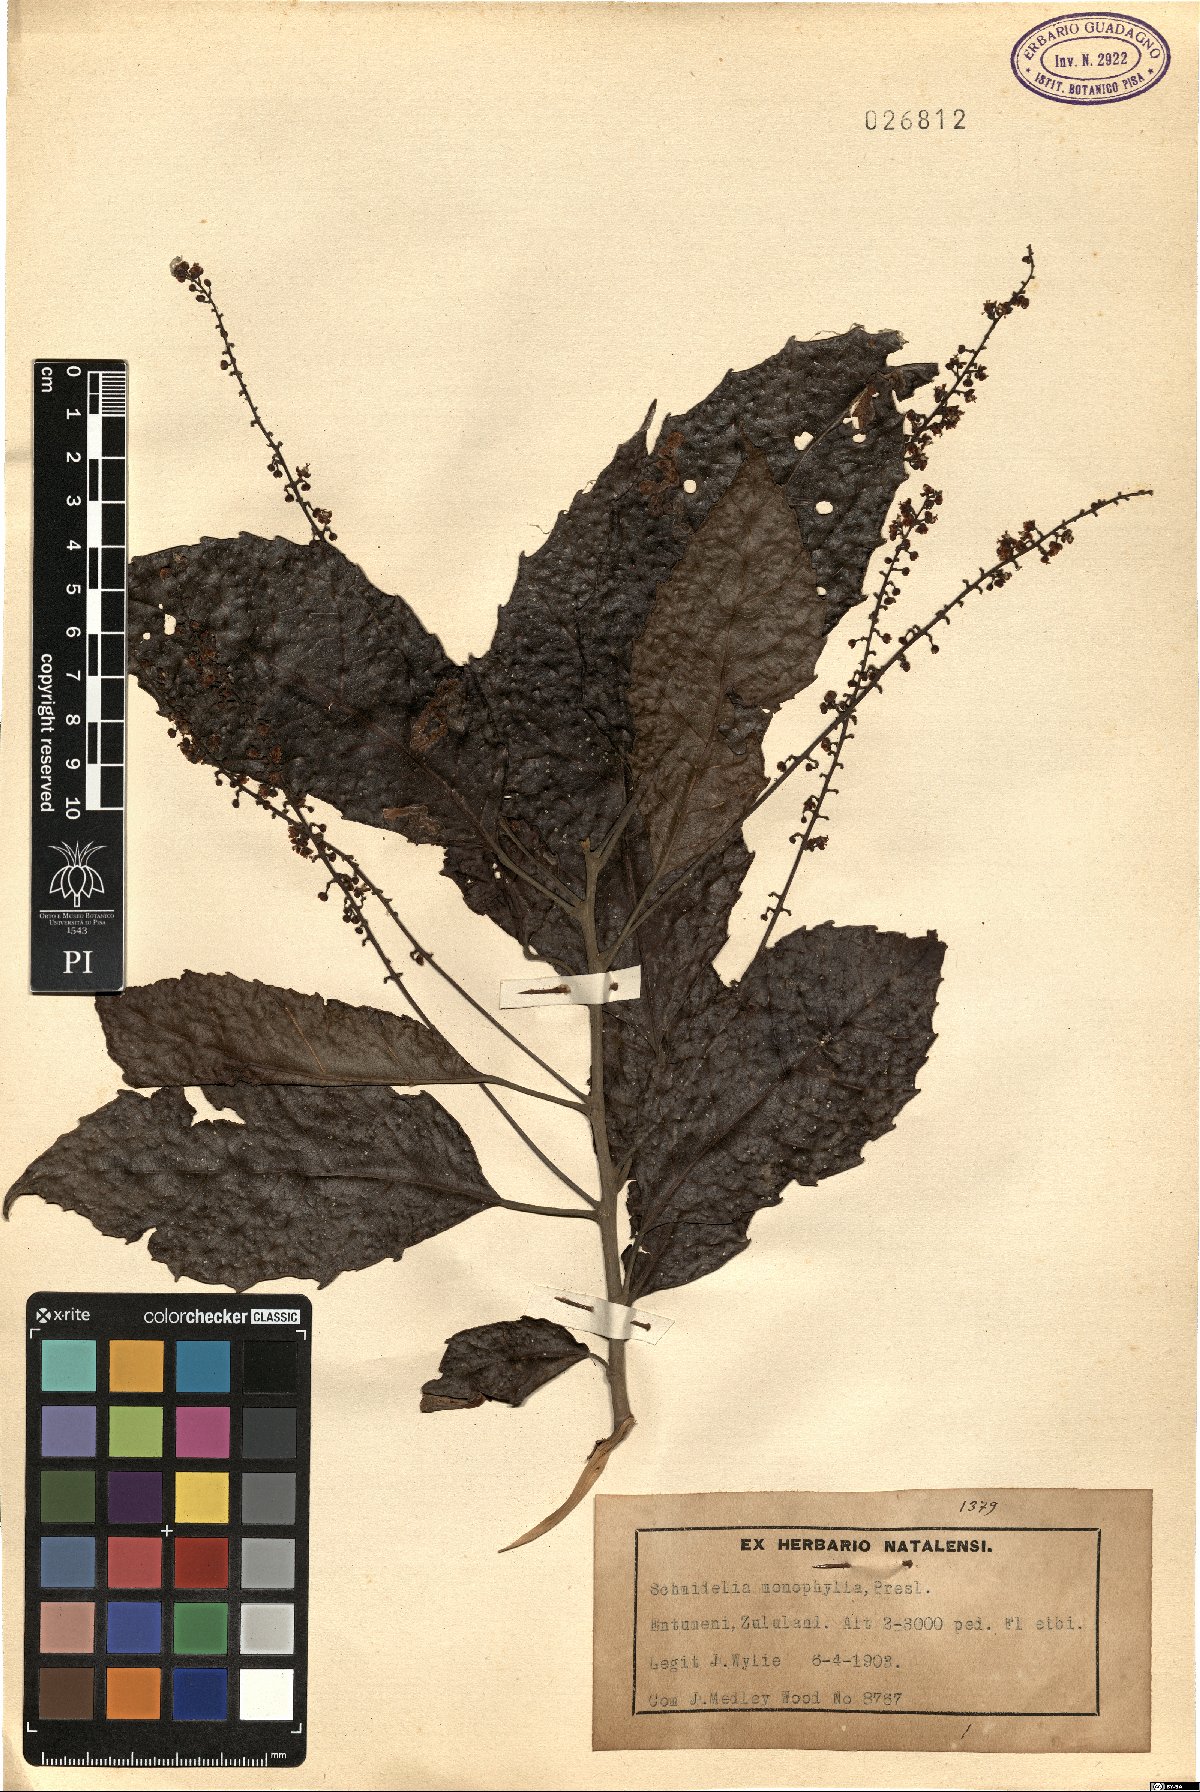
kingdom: Plantae
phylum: Tracheophyta
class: Magnoliopsida
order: Sapindales
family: Sapindaceae
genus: Allophylus
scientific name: Allophylus dregeanus
